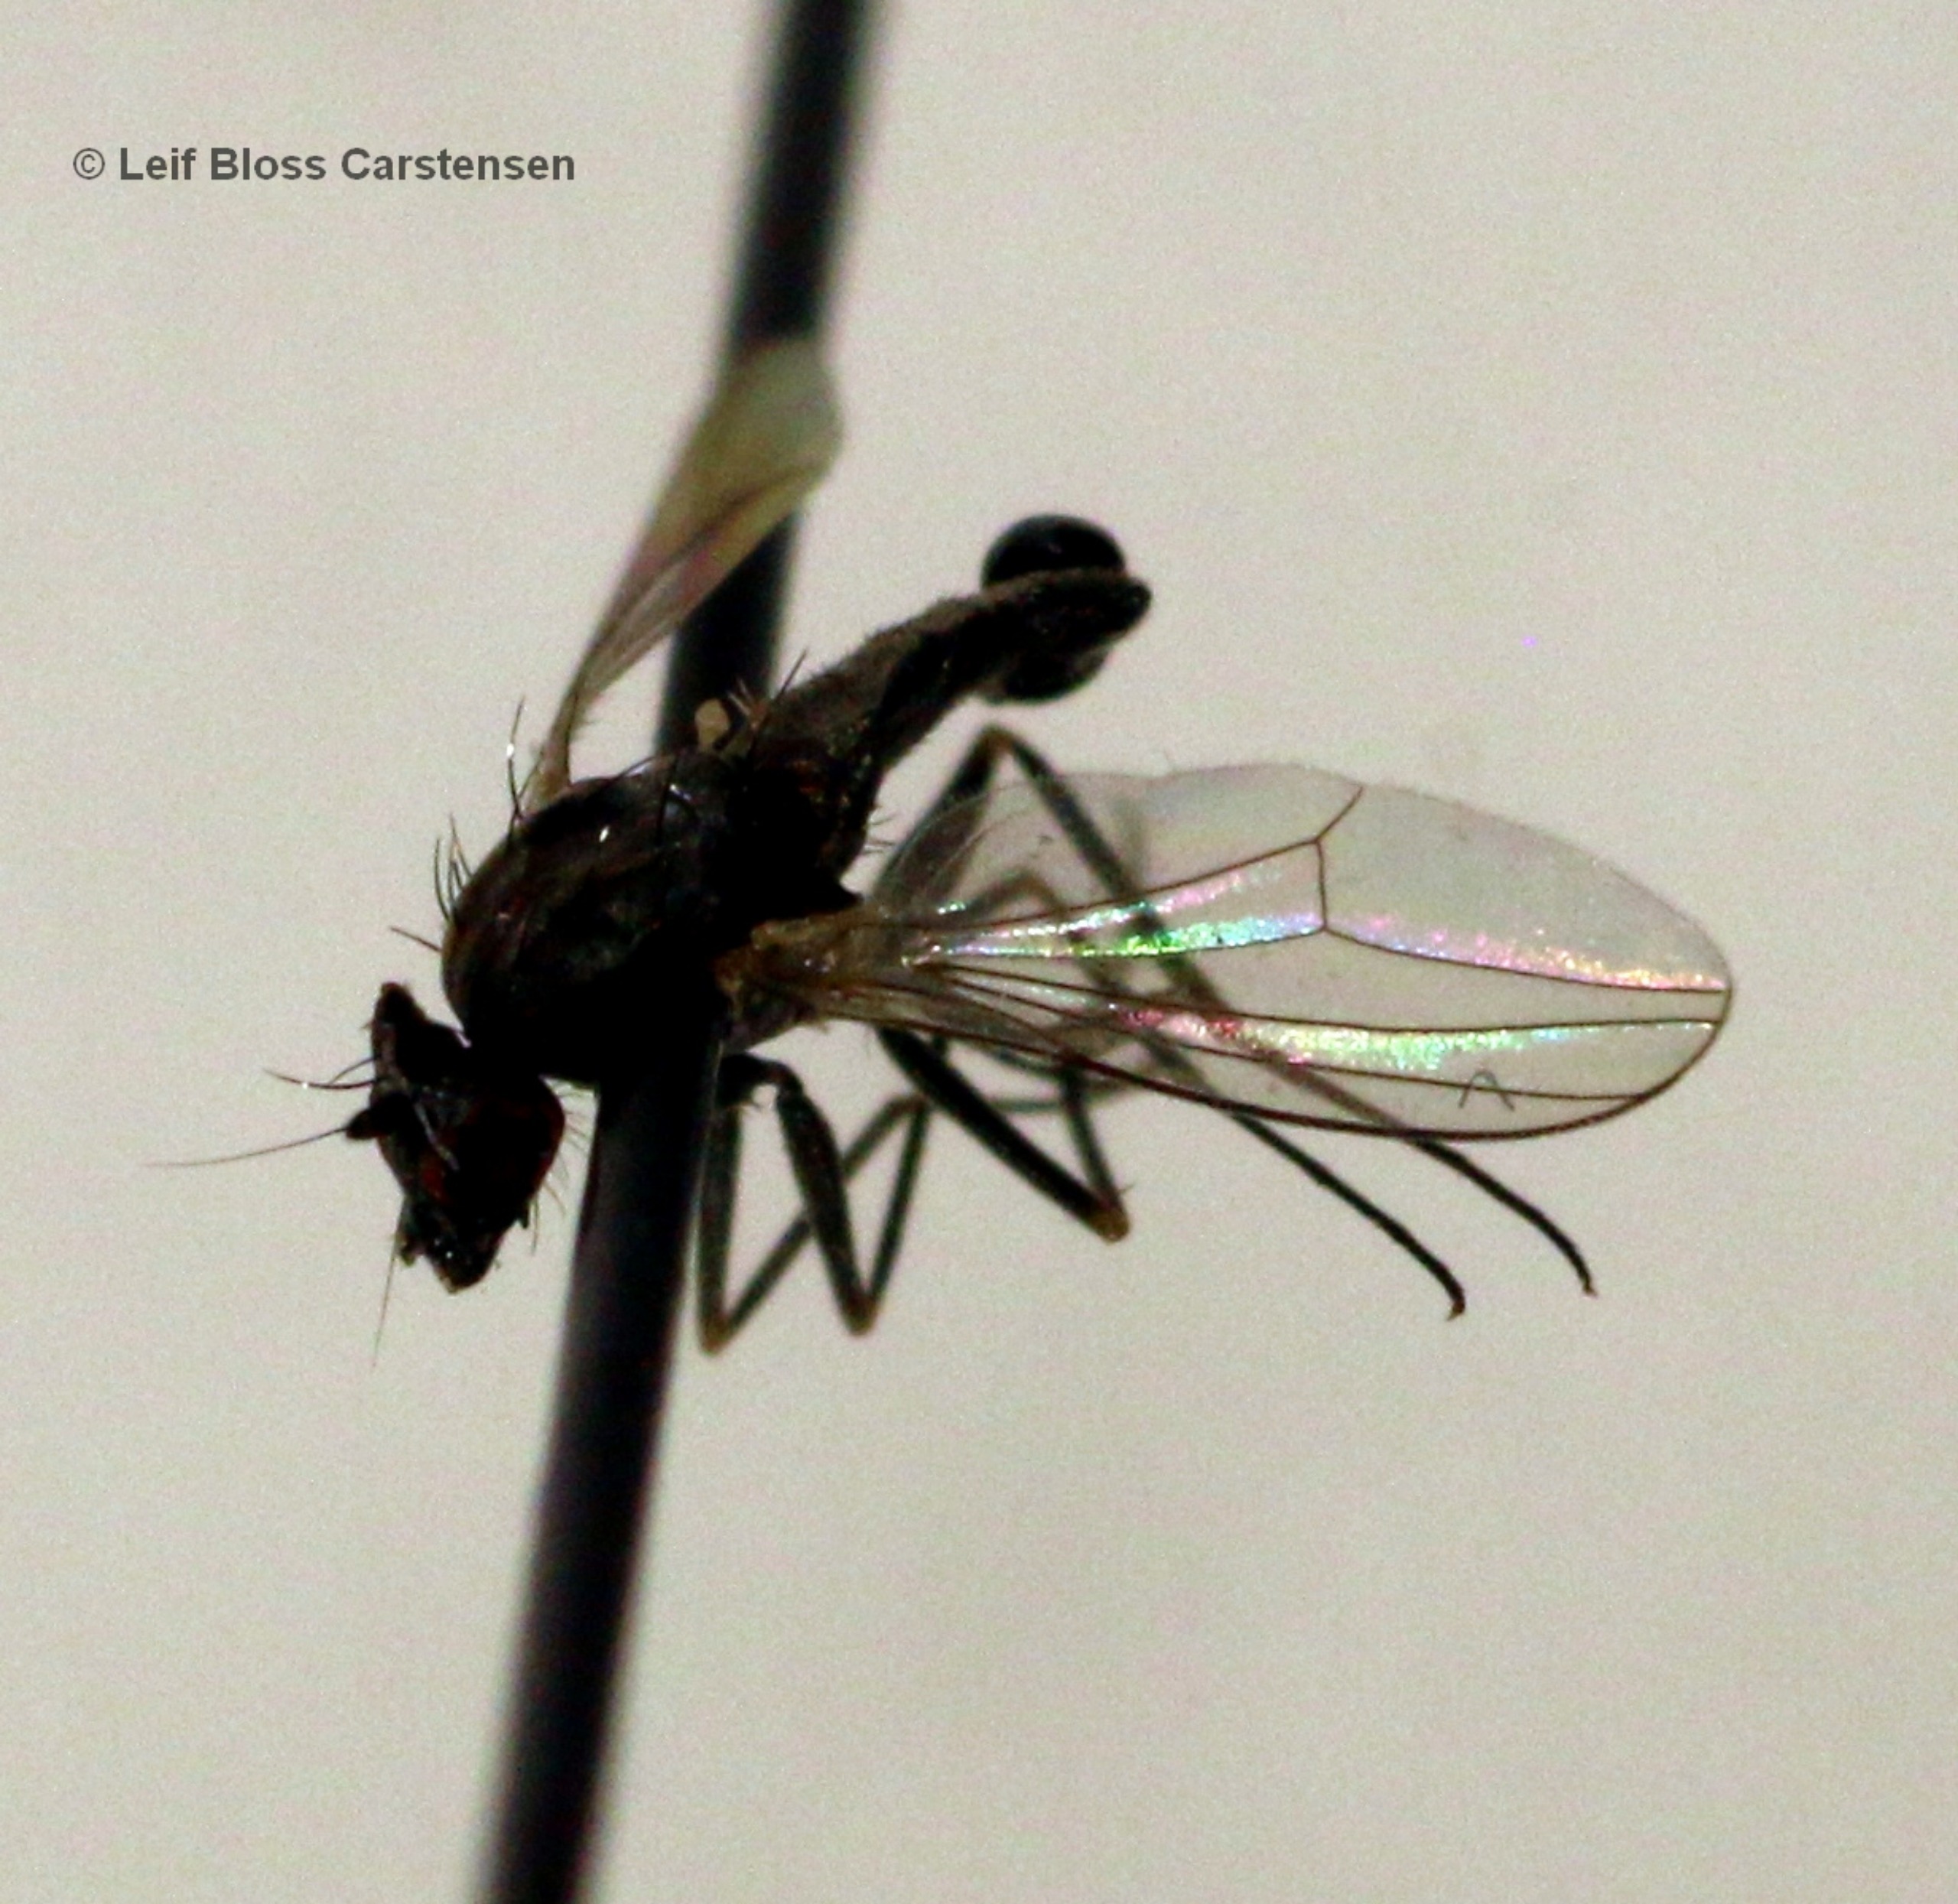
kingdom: Animalia
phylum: Arthropoda
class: Insecta
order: Diptera
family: Dolichopodidae
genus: Medetera
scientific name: Medetera dendrobaena
